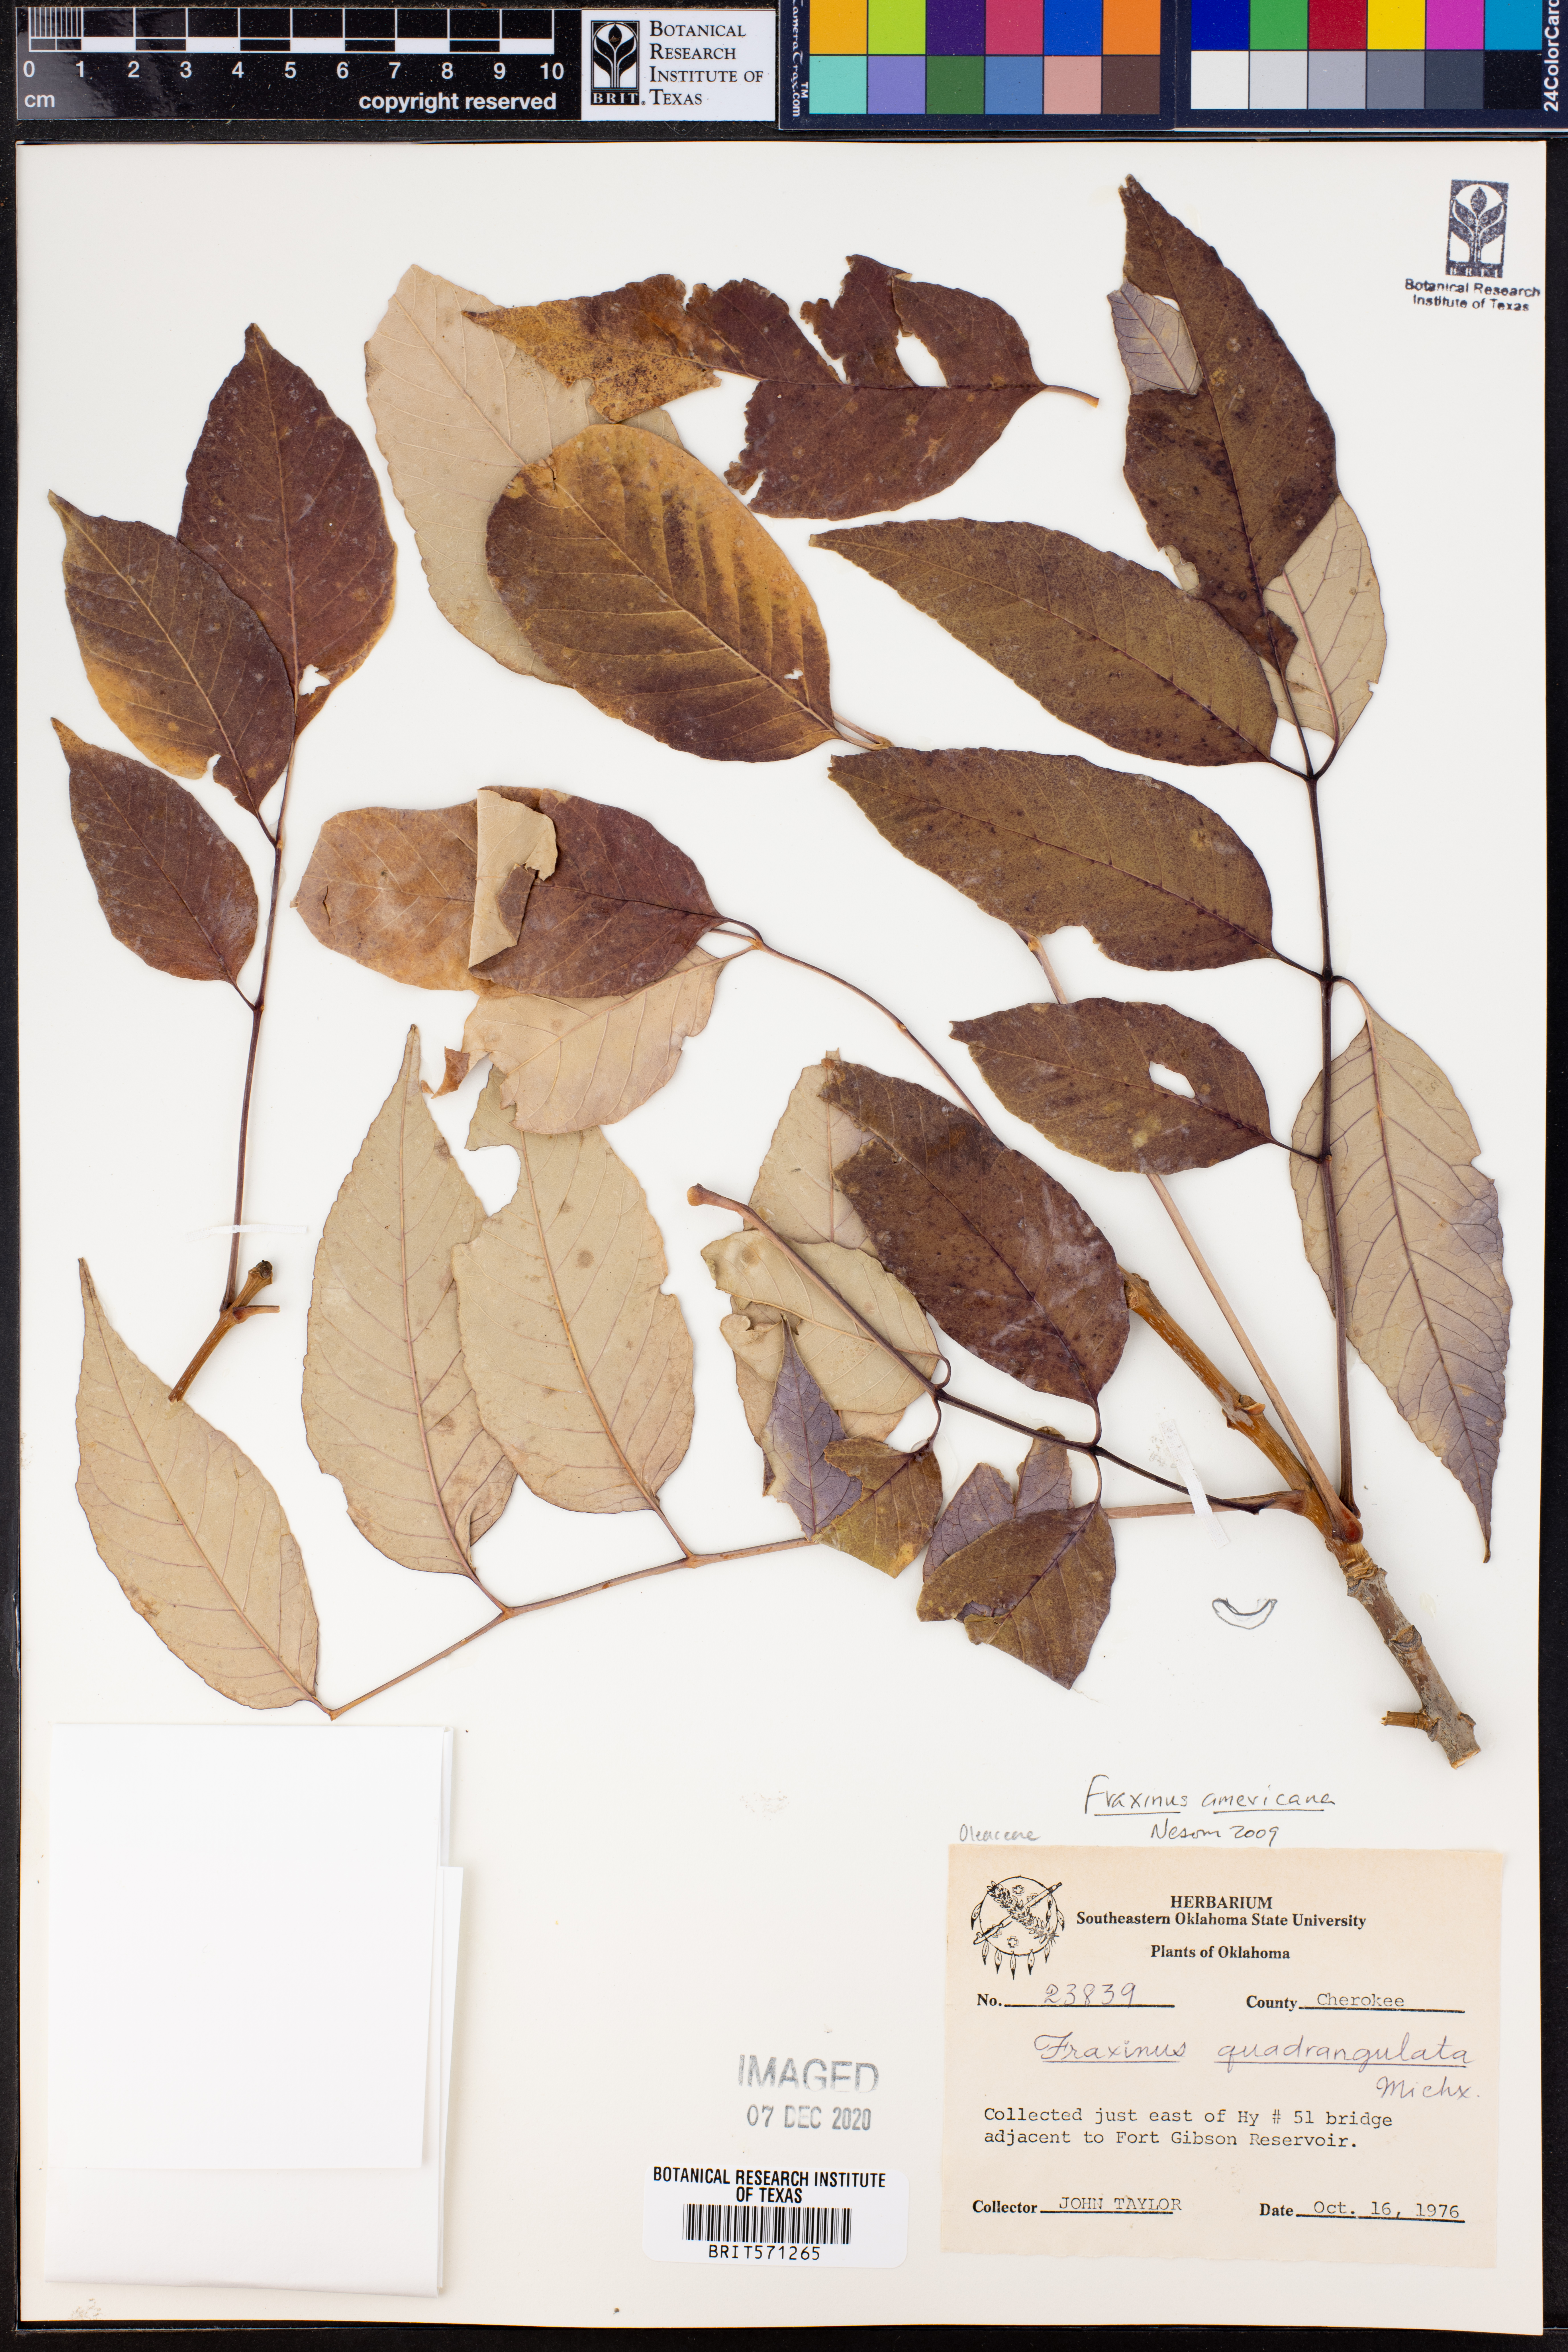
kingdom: Plantae
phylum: Tracheophyta
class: Magnoliopsida
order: Lamiales
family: Oleaceae
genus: Fraxinus
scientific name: Fraxinus americana
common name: White ash
